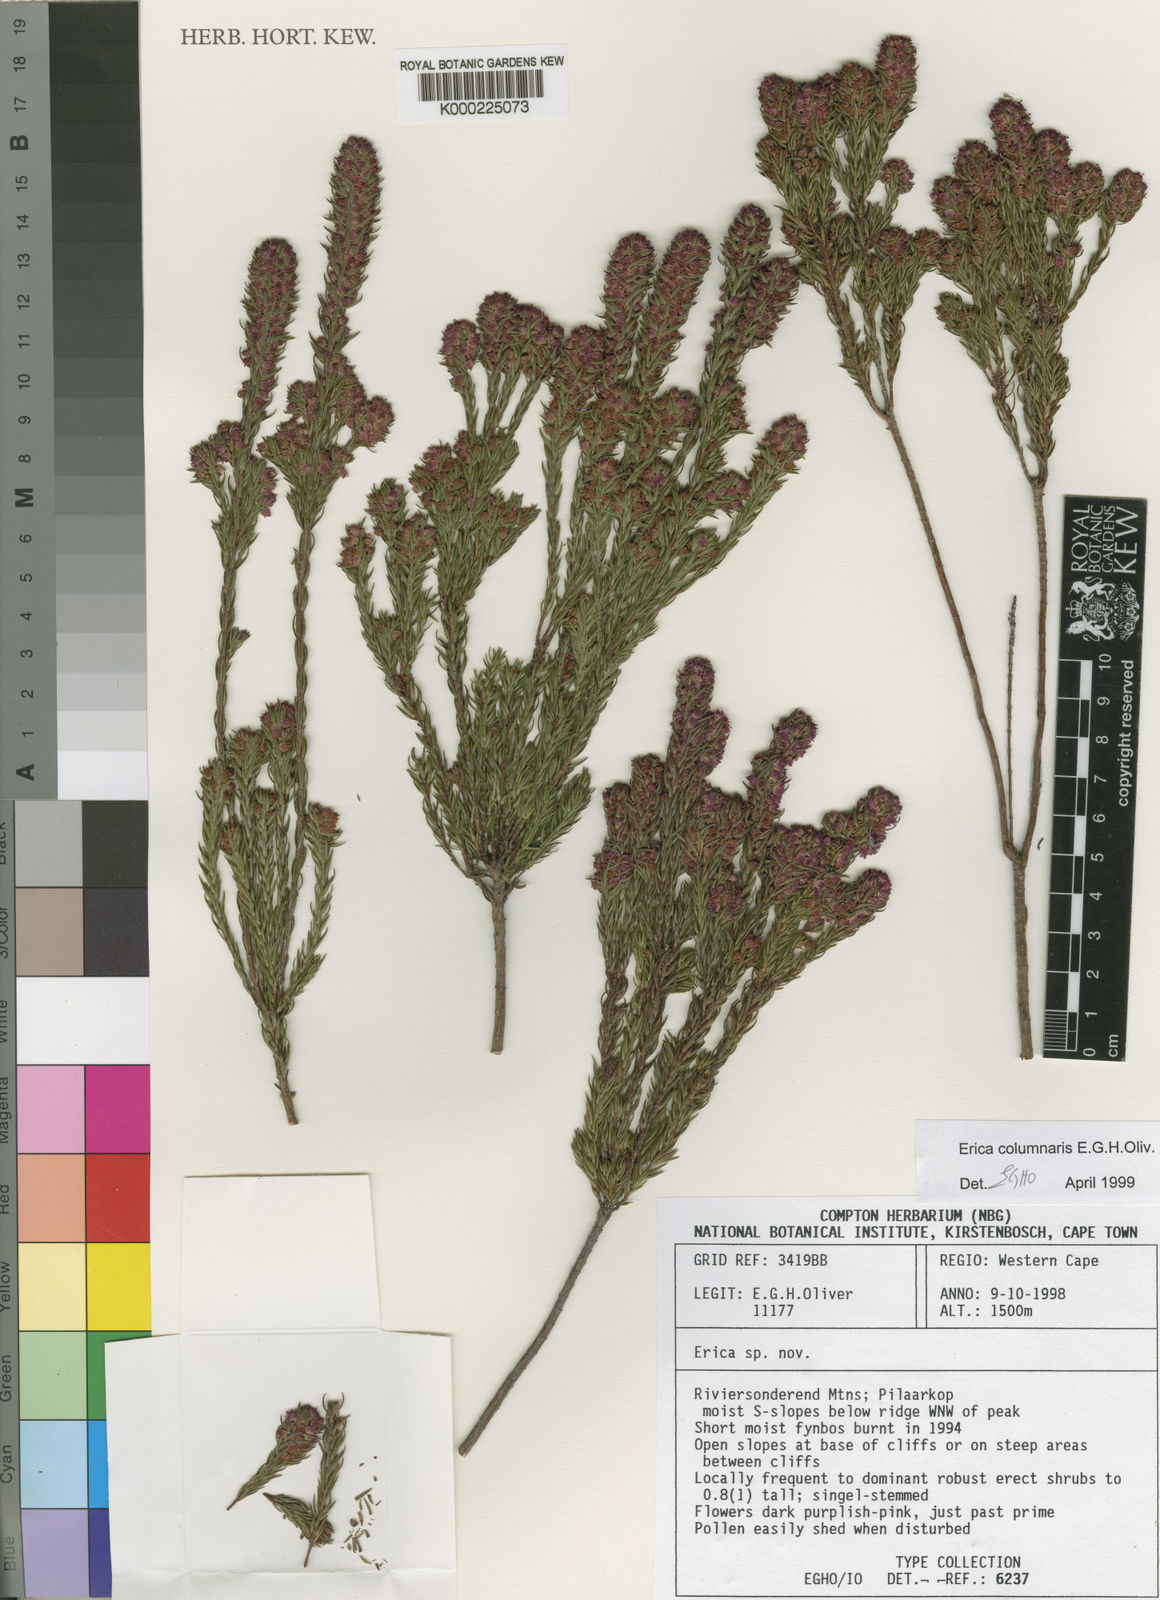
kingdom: Plantae
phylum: Tracheophyta
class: Magnoliopsida
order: Ericales
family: Ericaceae
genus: Erica
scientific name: Erica columnaris
